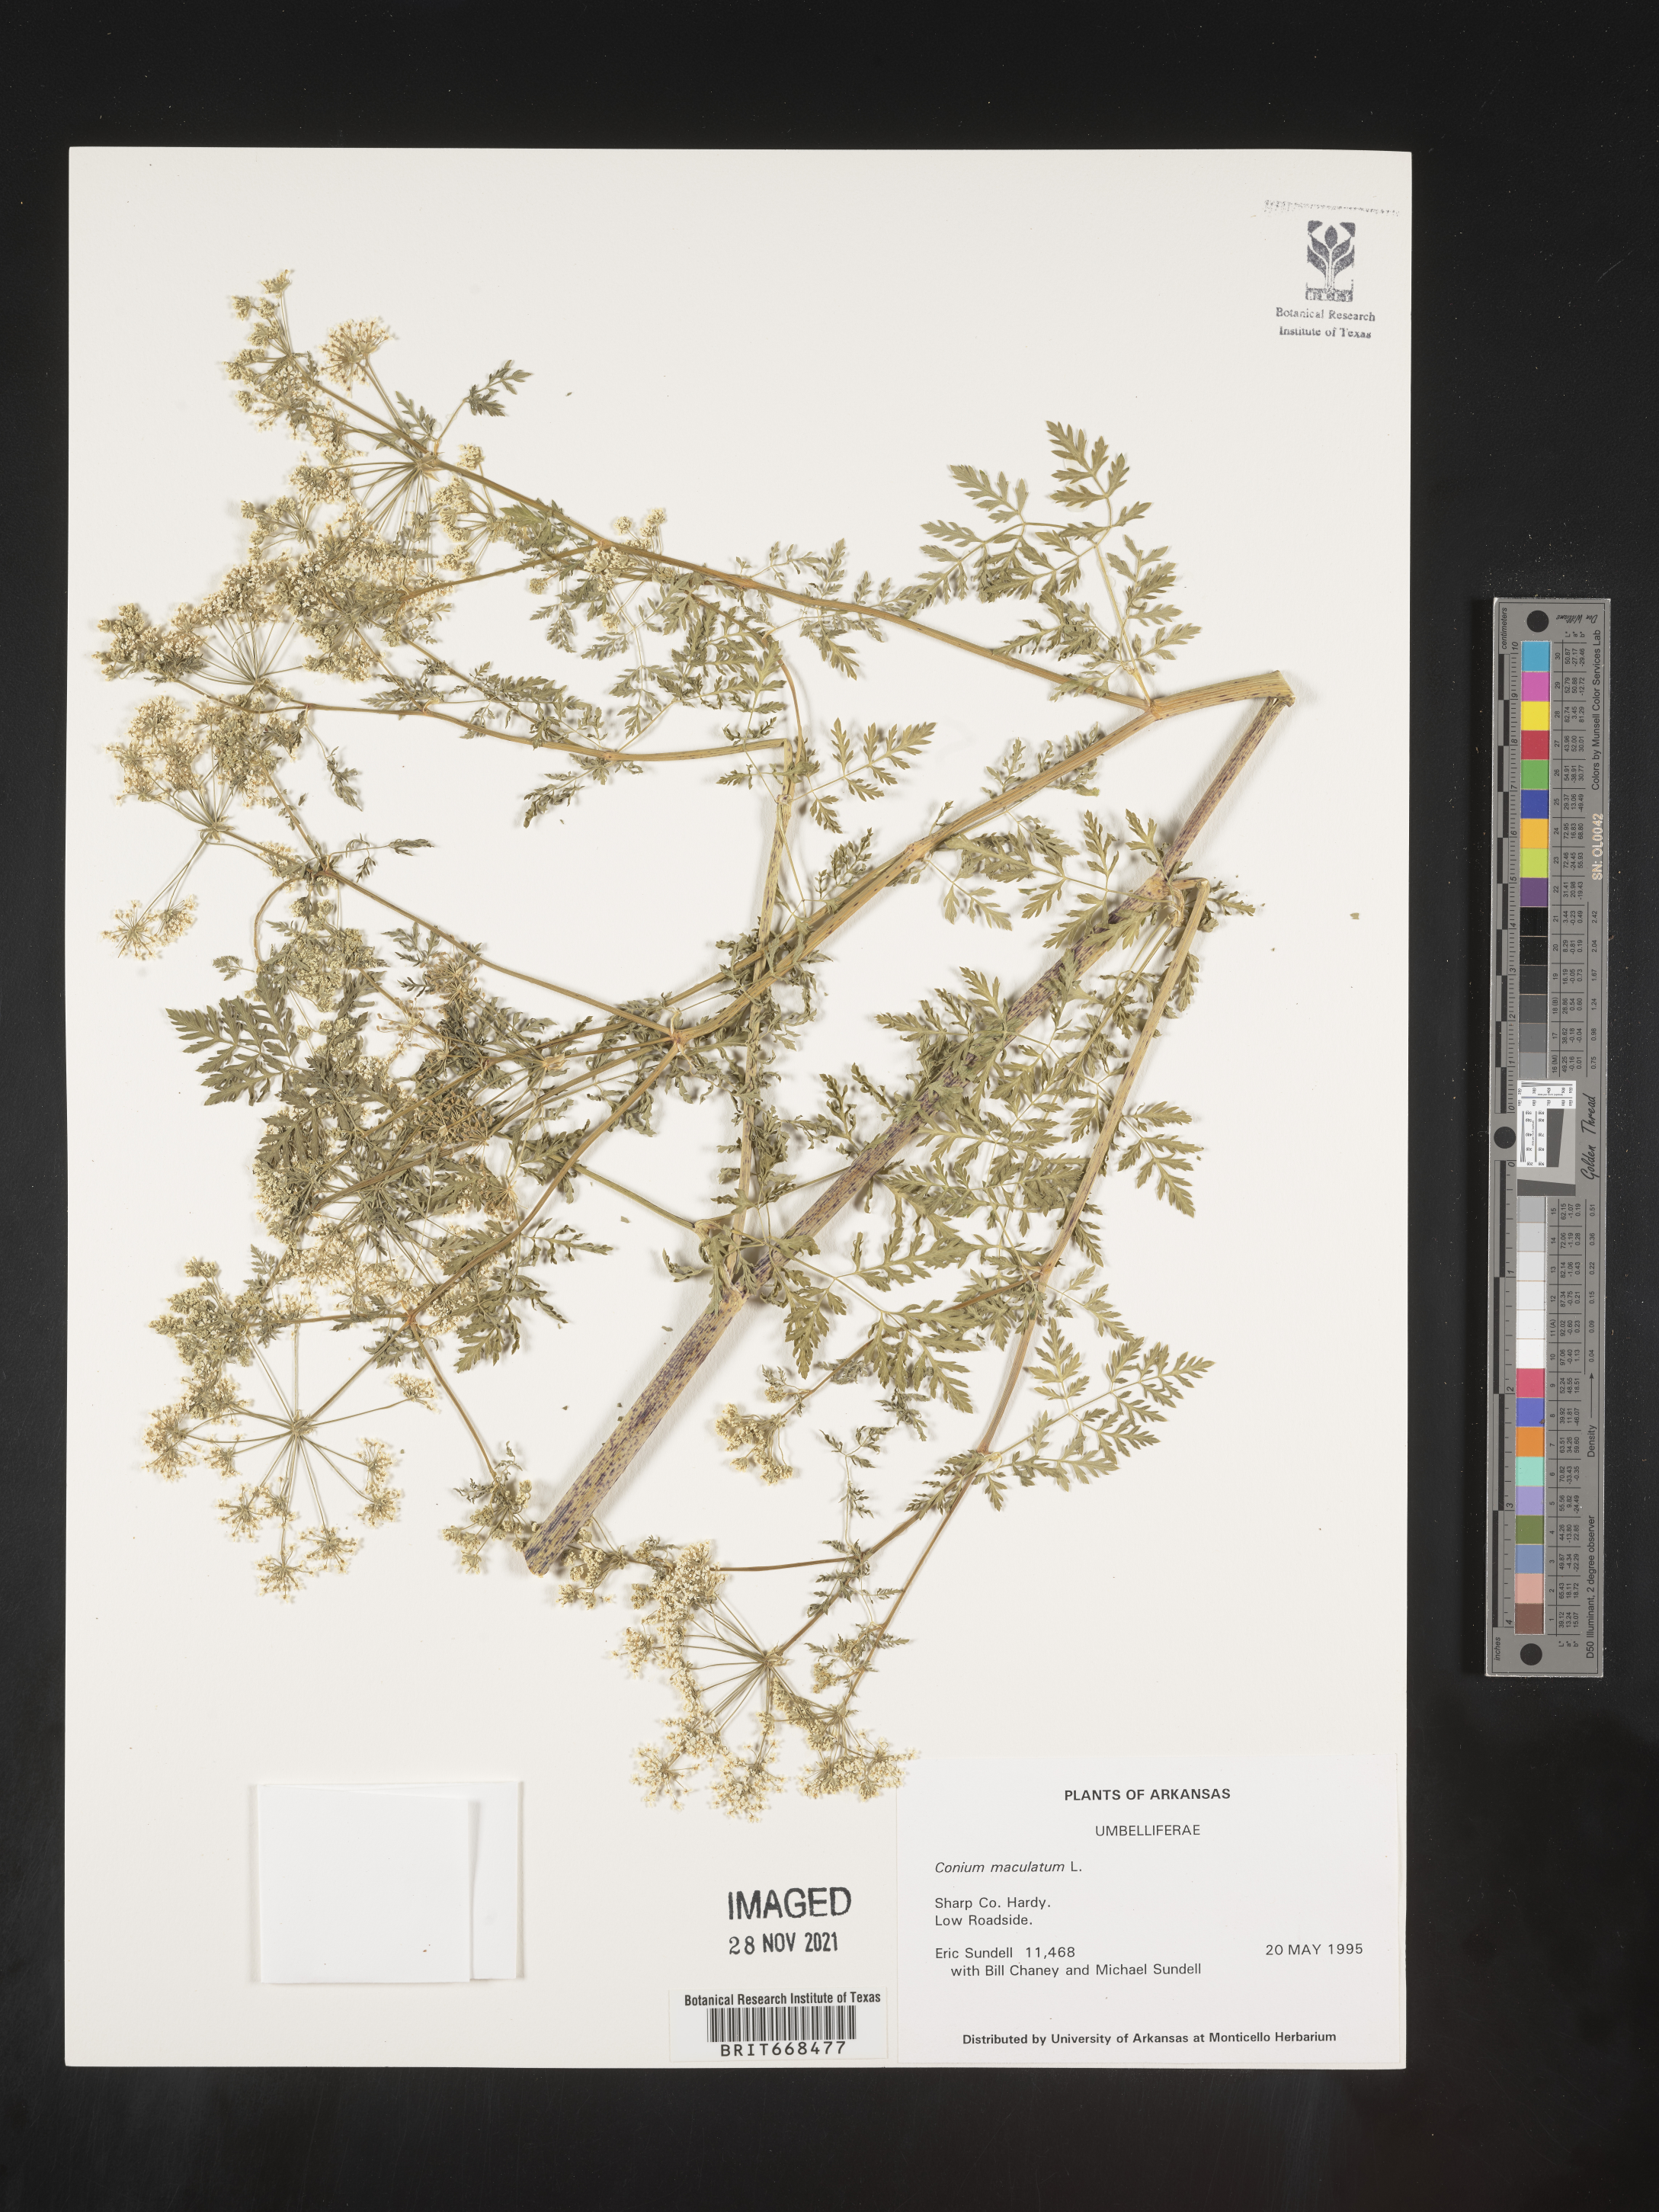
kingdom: Plantae
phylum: Tracheophyta
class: Magnoliopsida
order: Apiales
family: Apiaceae
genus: Cicuta
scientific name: Cicuta maculata
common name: Spotted cowbane
